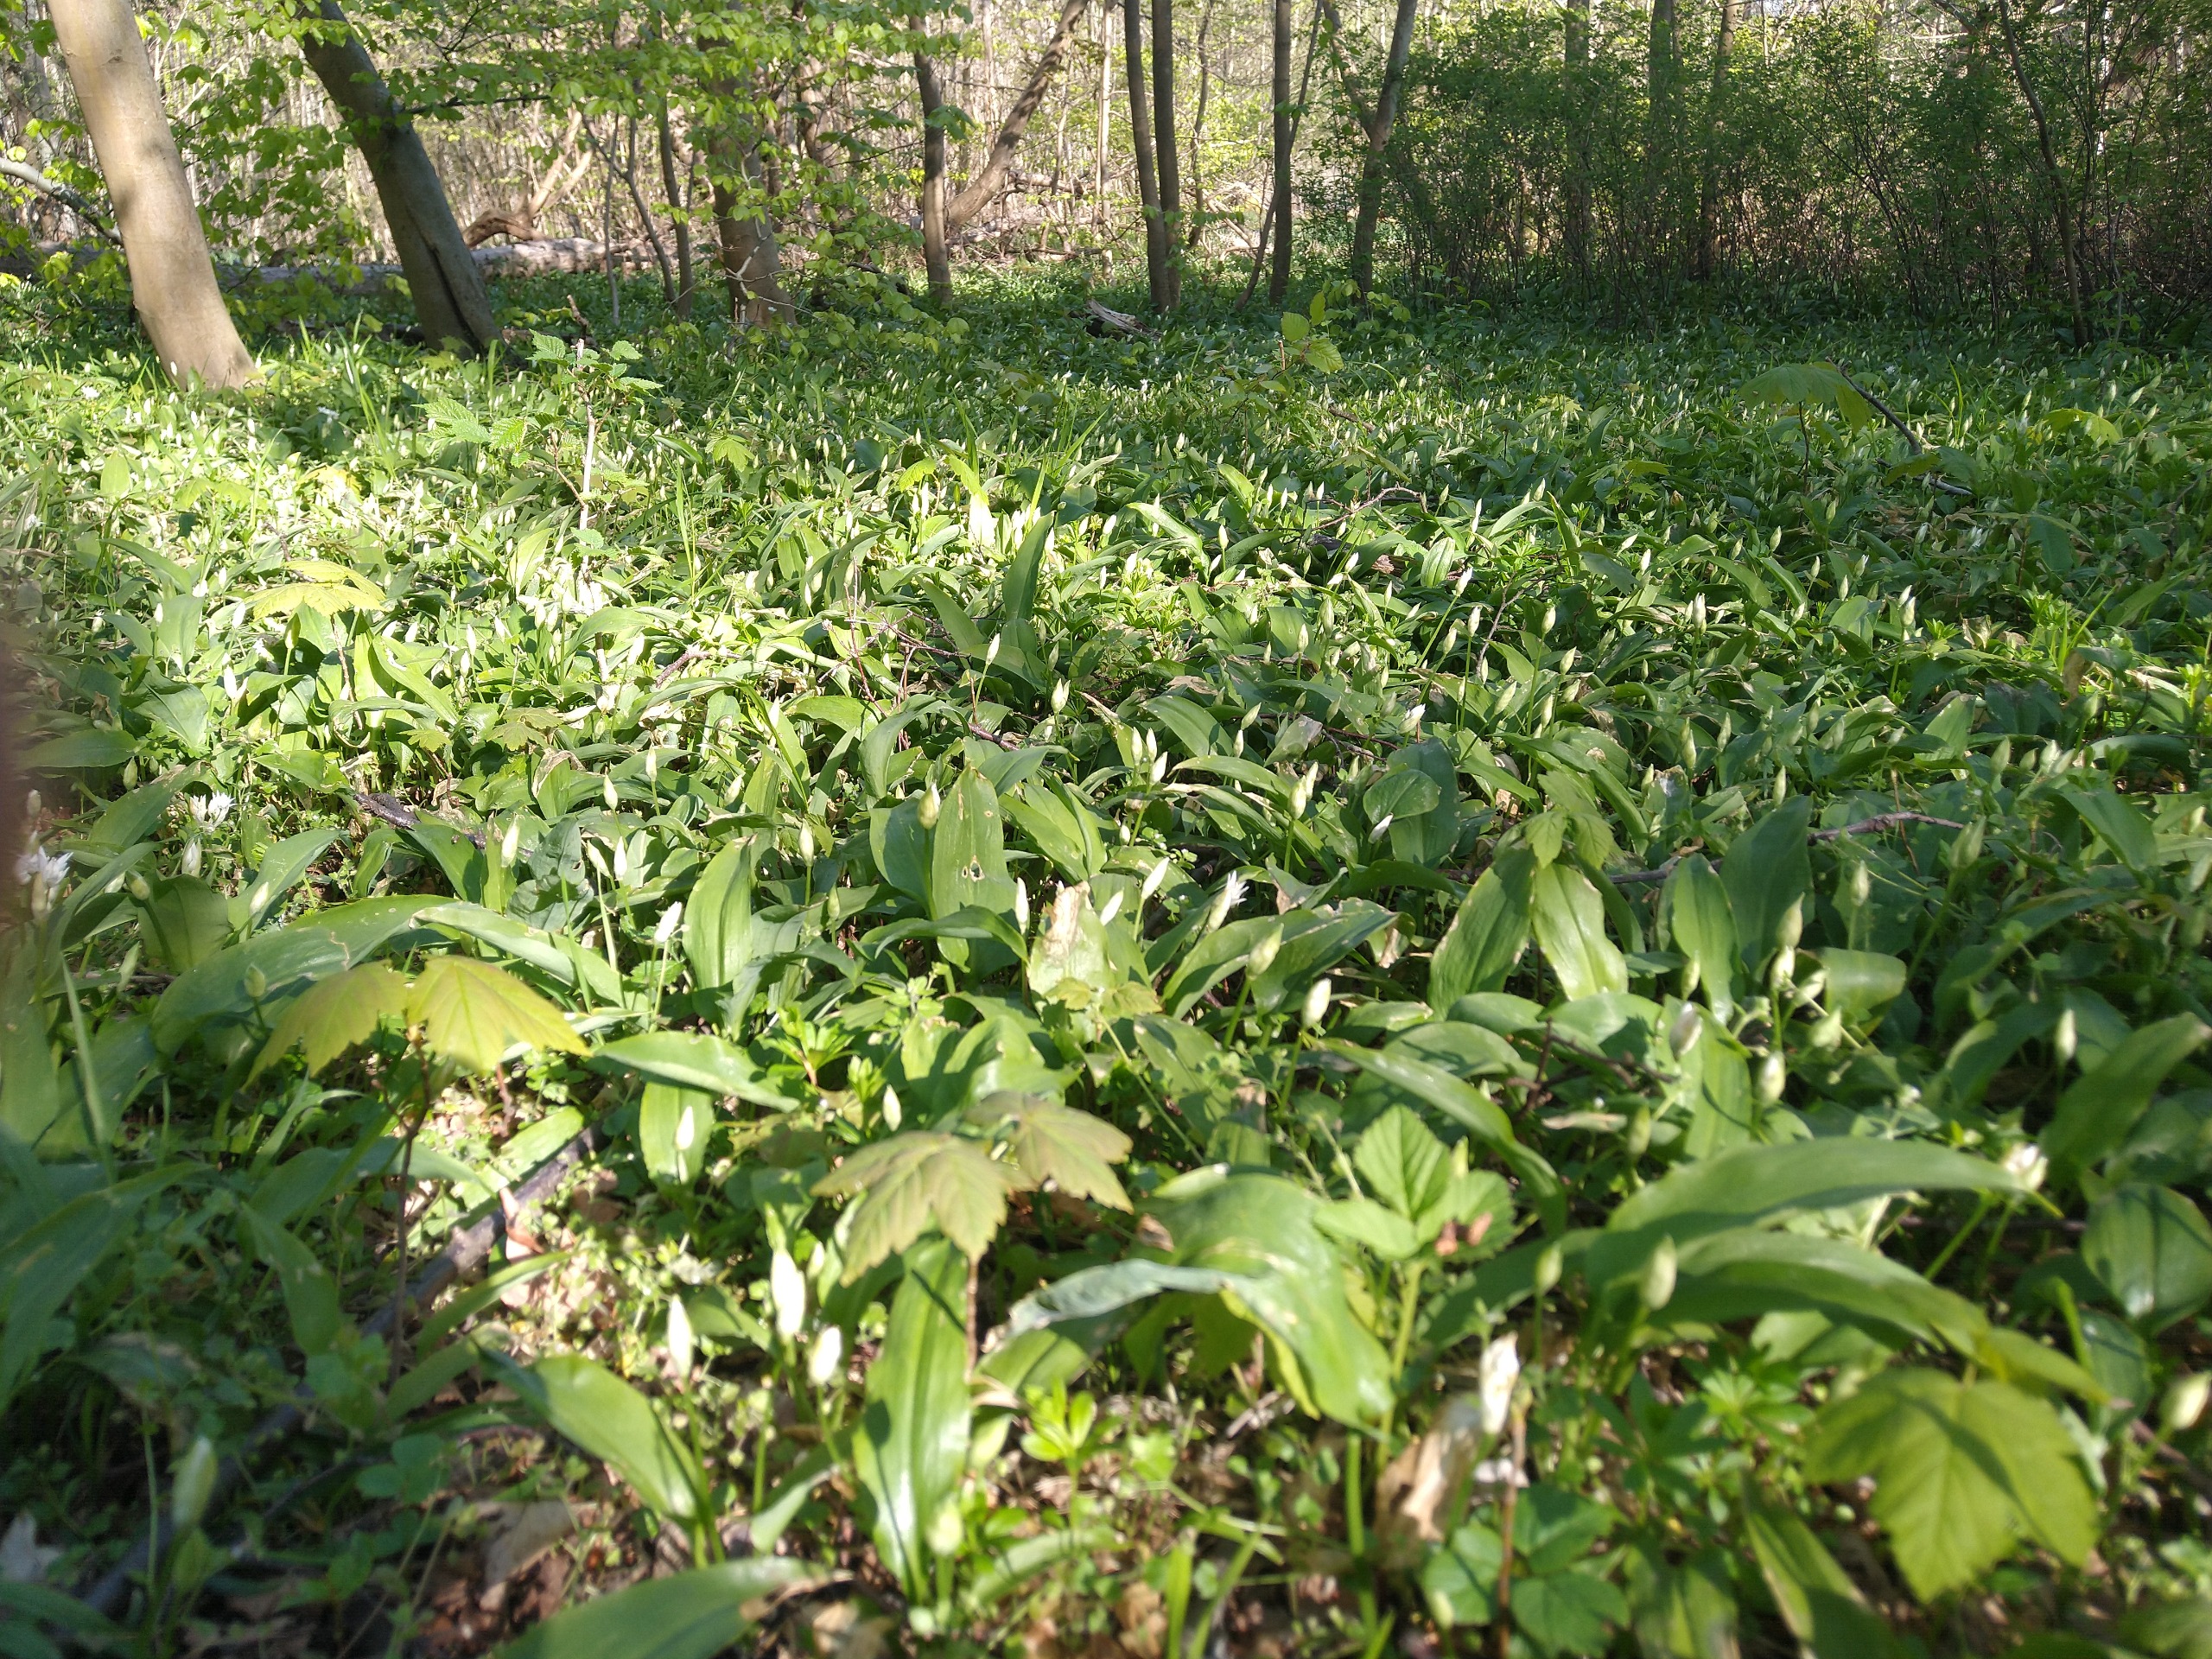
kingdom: Plantae
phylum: Tracheophyta
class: Liliopsida
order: Asparagales
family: Amaryllidaceae
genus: Allium
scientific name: Allium ursinum
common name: Rams-løg
